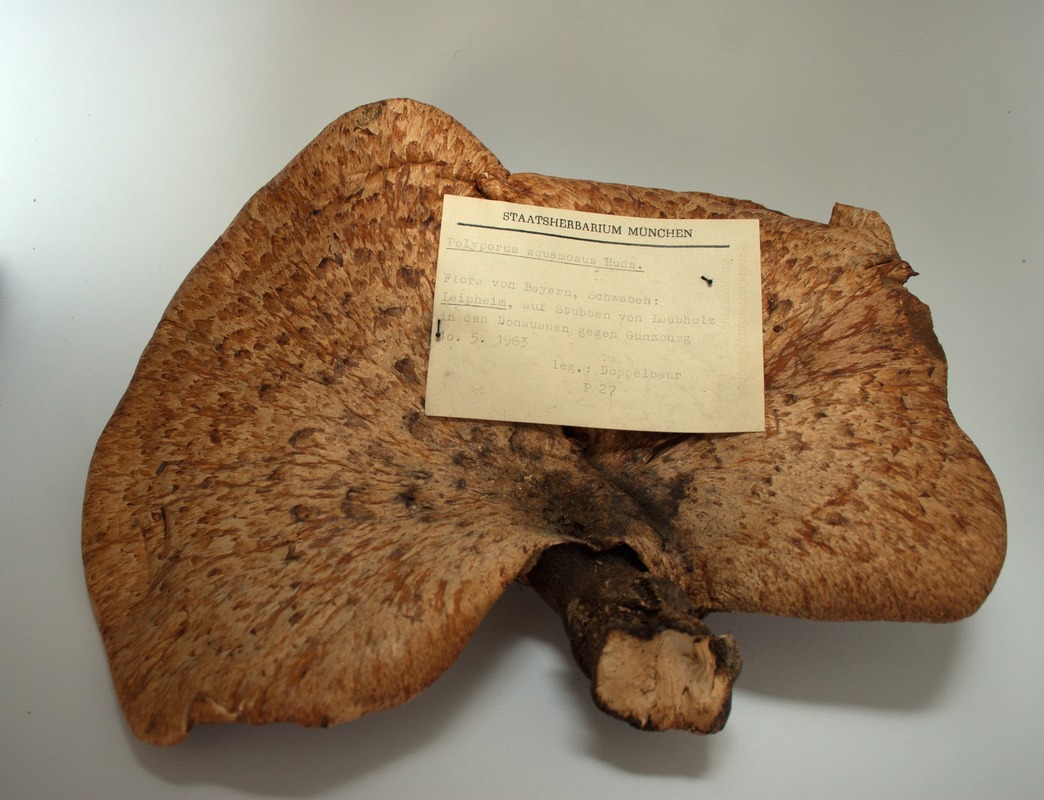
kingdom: Fungi
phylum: Basidiomycota
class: Agaricomycetes
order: Polyporales
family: Polyporaceae
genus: Cerioporus
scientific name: Cerioporus squamosus
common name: Dryad's saddle
